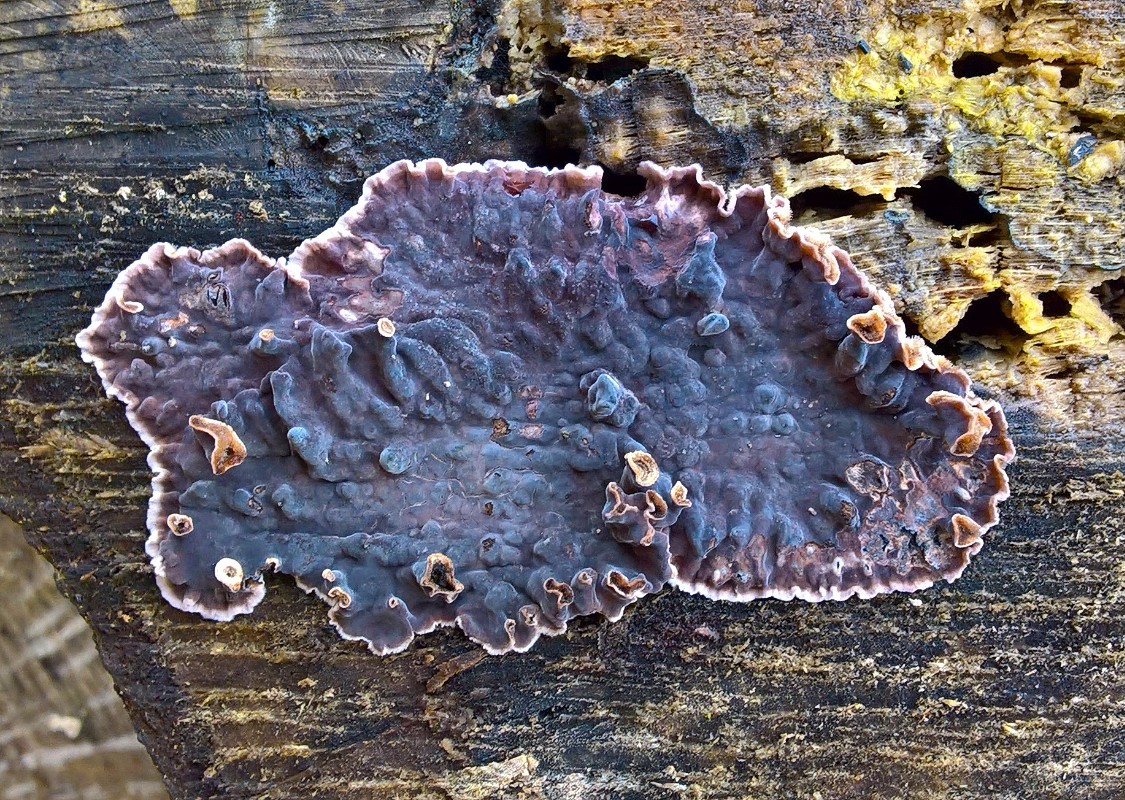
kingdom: Fungi
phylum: Basidiomycota
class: Agaricomycetes
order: Agaricales
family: Cyphellaceae
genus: Chondrostereum
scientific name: Chondrostereum purpureum
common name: purpurlædersvamp
